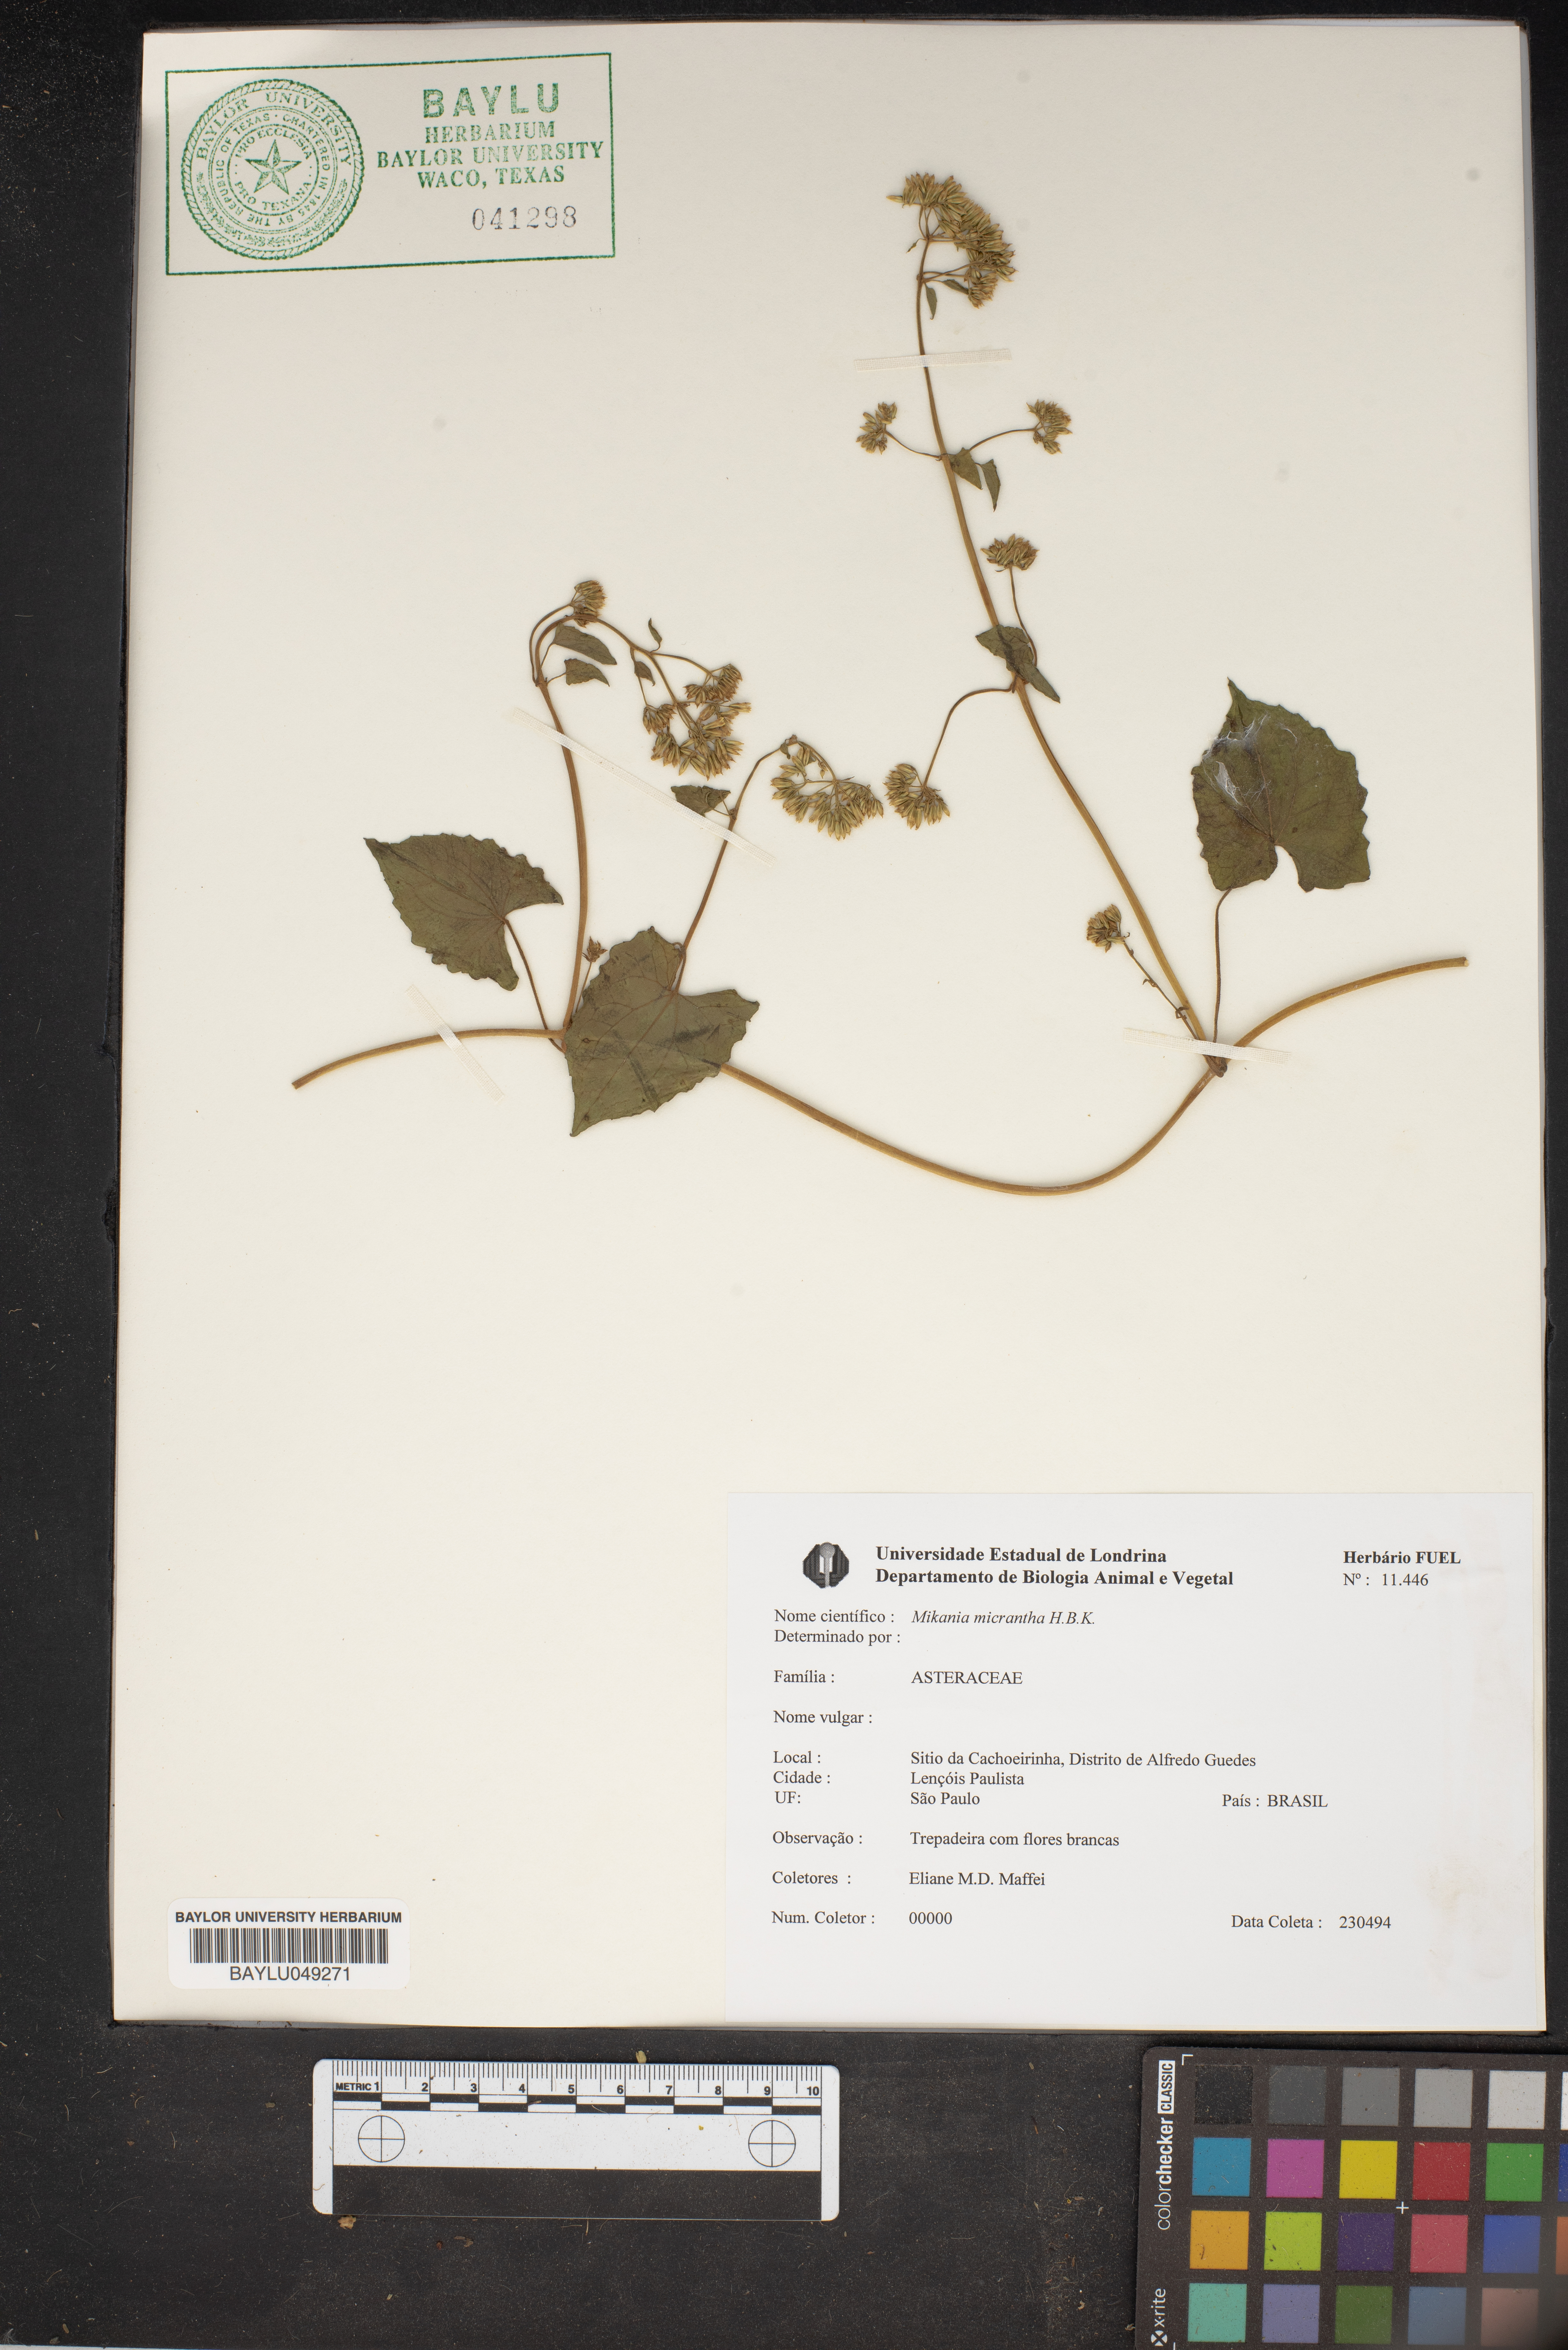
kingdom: Plantae
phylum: Tracheophyta
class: Magnoliopsida
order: Asterales
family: Asteraceae
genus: Mikania
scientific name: Mikania micrantha
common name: Mile-a-minute
